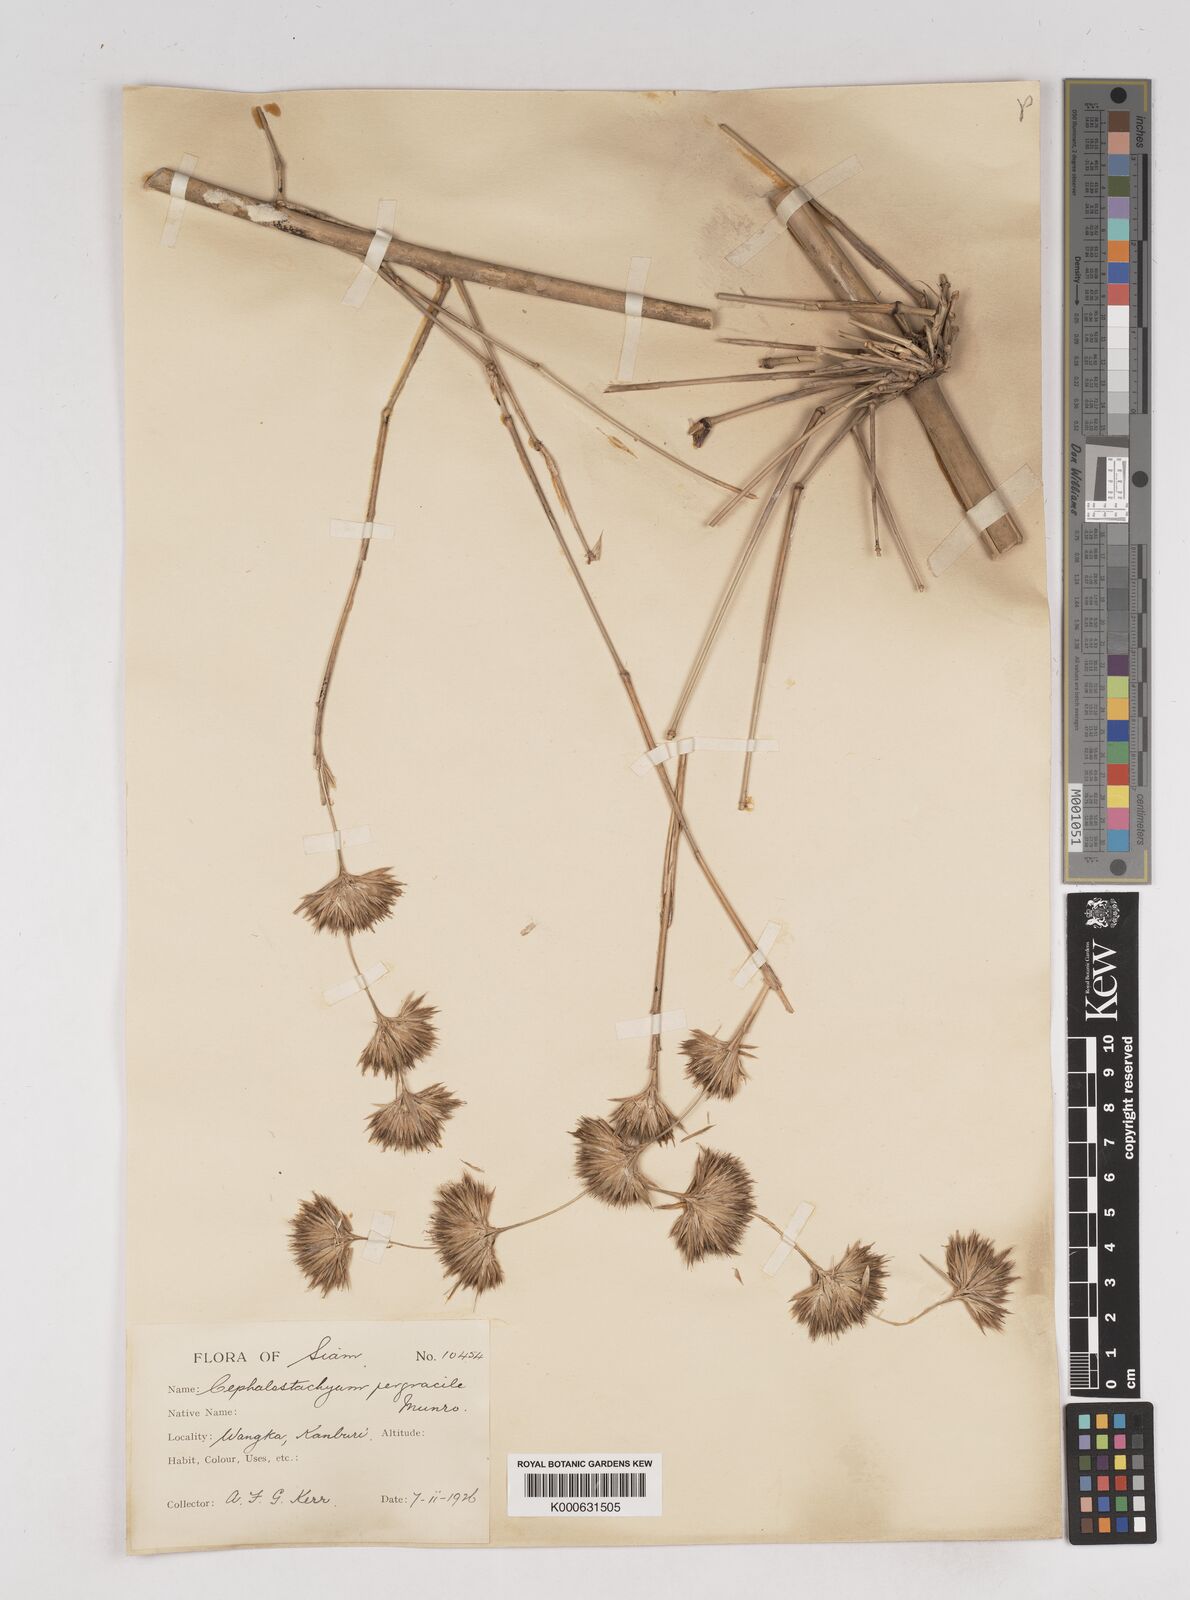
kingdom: Plantae
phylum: Tracheophyta
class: Liliopsida
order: Poales
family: Poaceae
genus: Schizostachyum
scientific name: Schizostachyum pergracile
